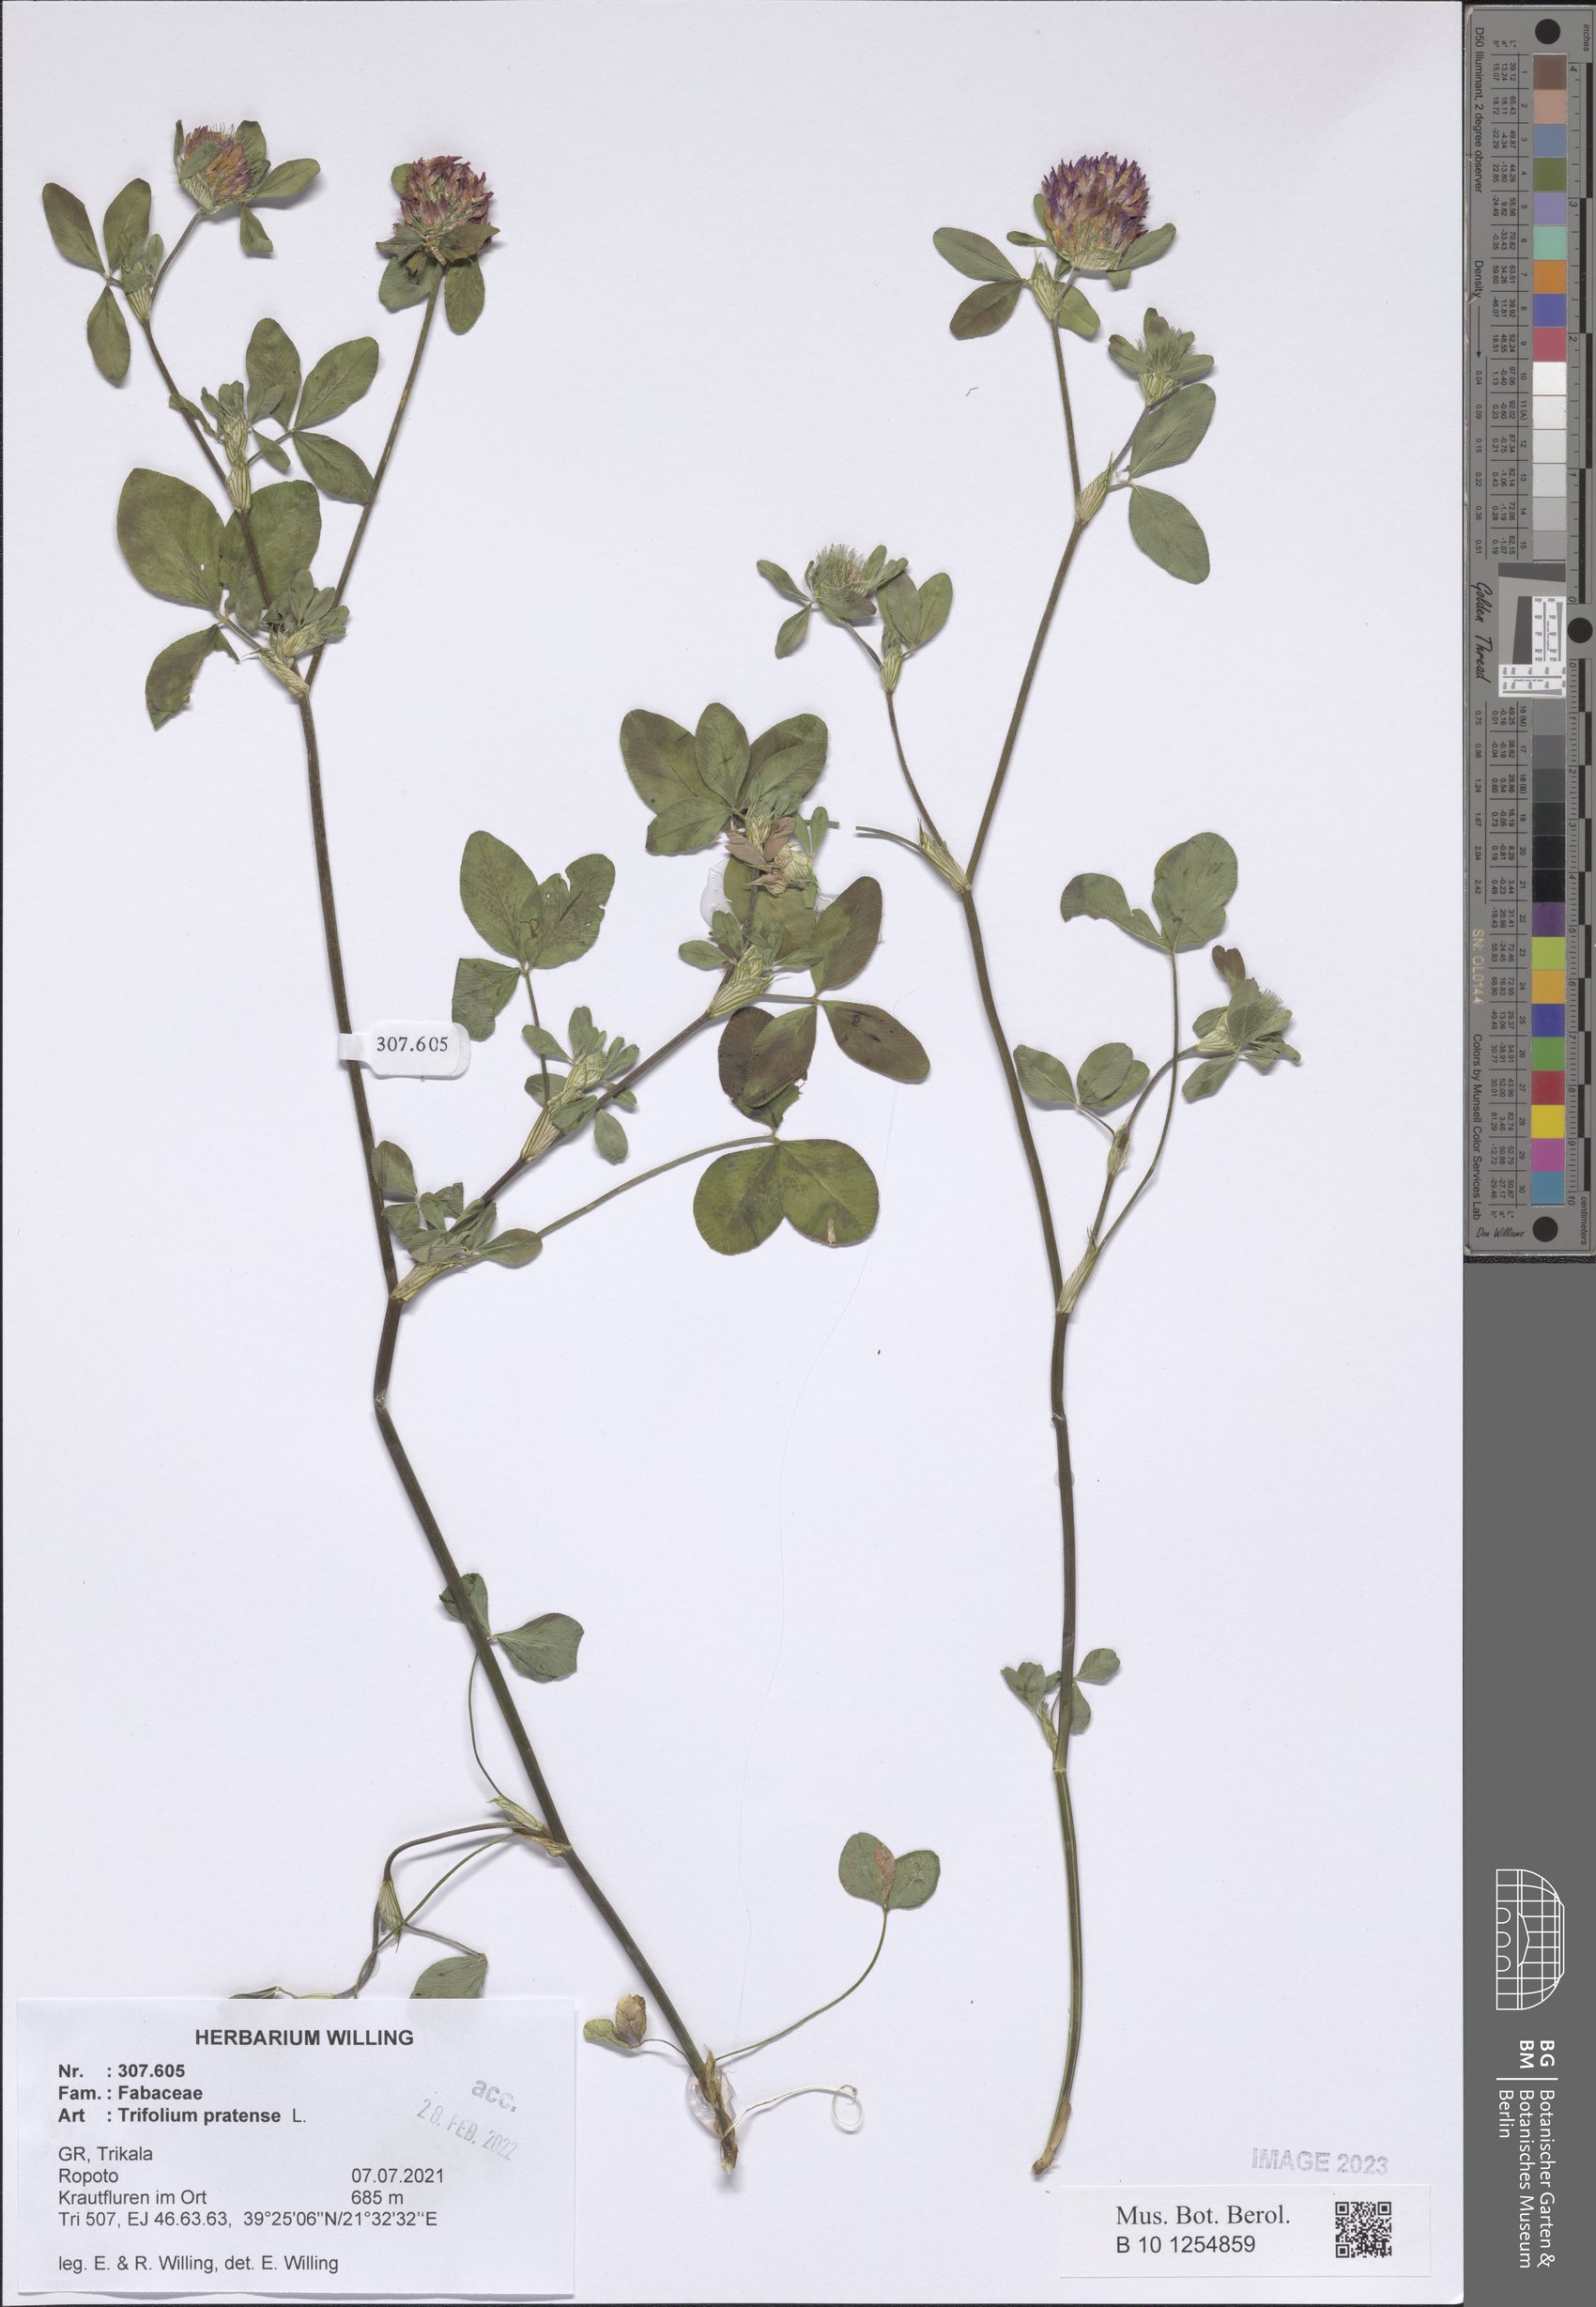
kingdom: Plantae
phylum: Tracheophyta
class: Magnoliopsida
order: Fabales
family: Fabaceae
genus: Trifolium
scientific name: Trifolium pratense
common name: Red clover
